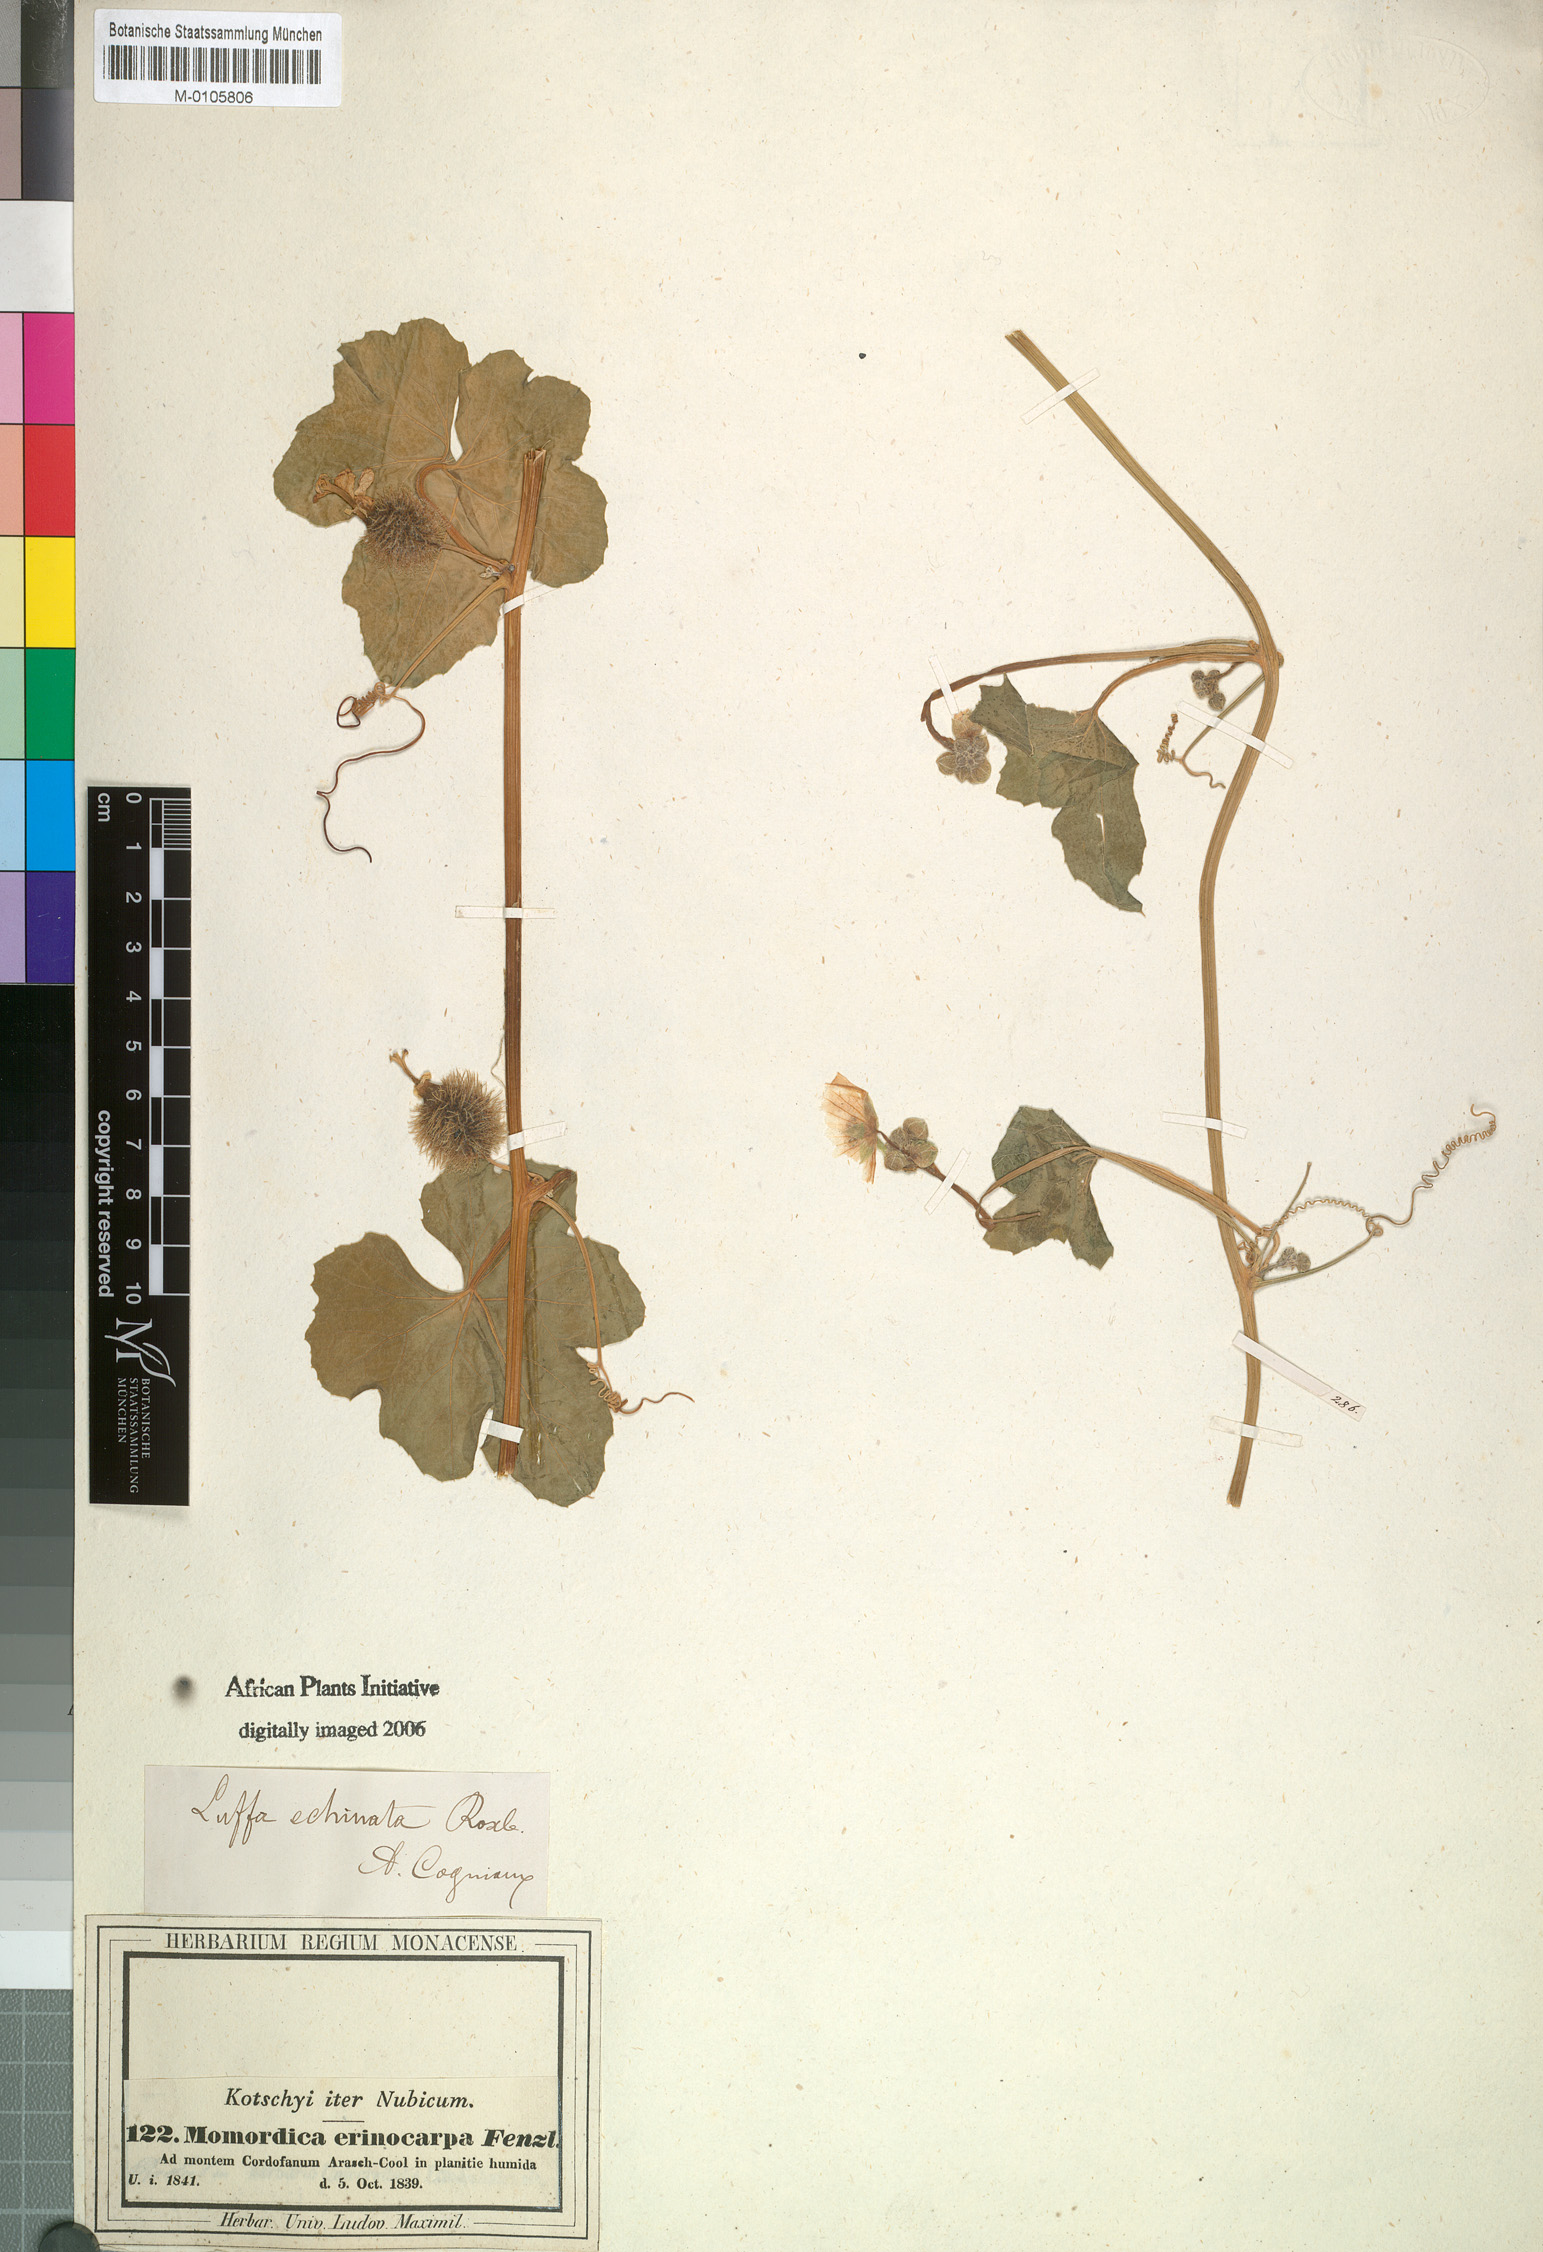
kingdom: Plantae
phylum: Tracheophyta
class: Magnoliopsida
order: Cucurbitales
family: Cucurbitaceae
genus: Luffa
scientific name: Luffa echinata
